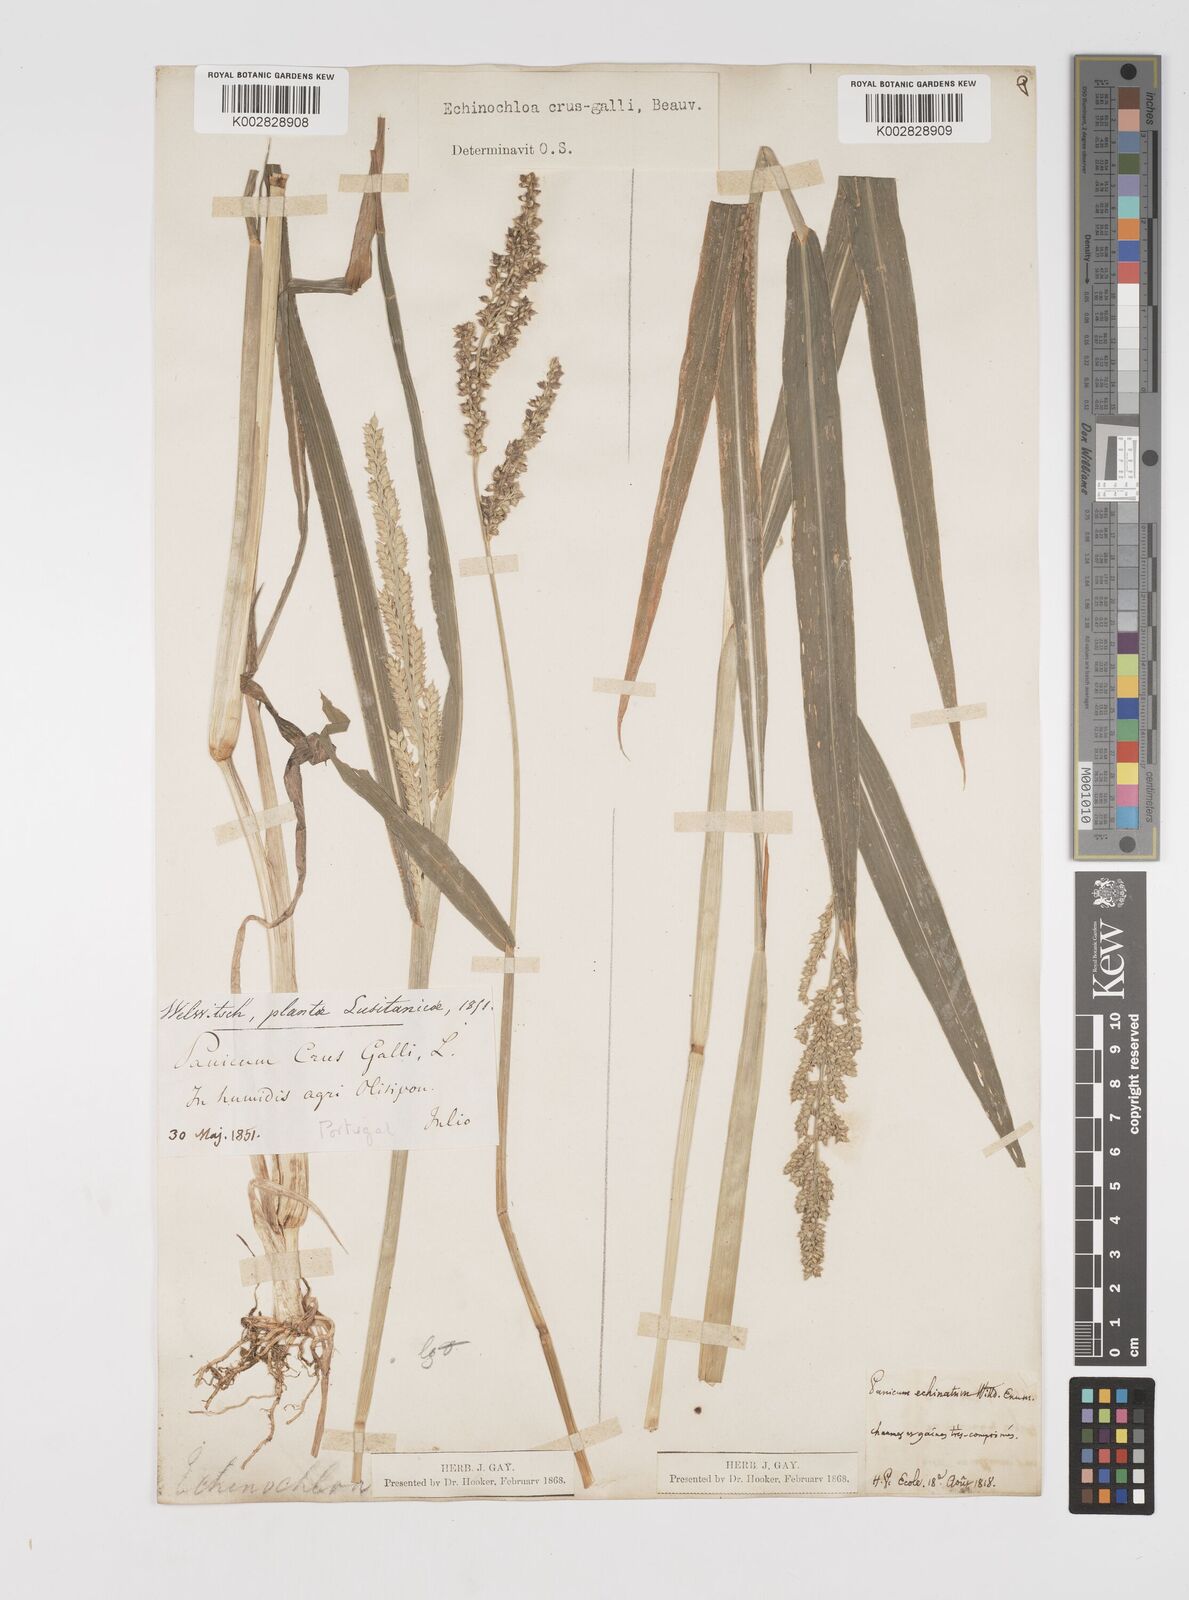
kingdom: Plantae
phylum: Tracheophyta
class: Liliopsida
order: Poales
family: Poaceae
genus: Echinochloa
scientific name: Echinochloa crus-galli
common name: Cockspur
